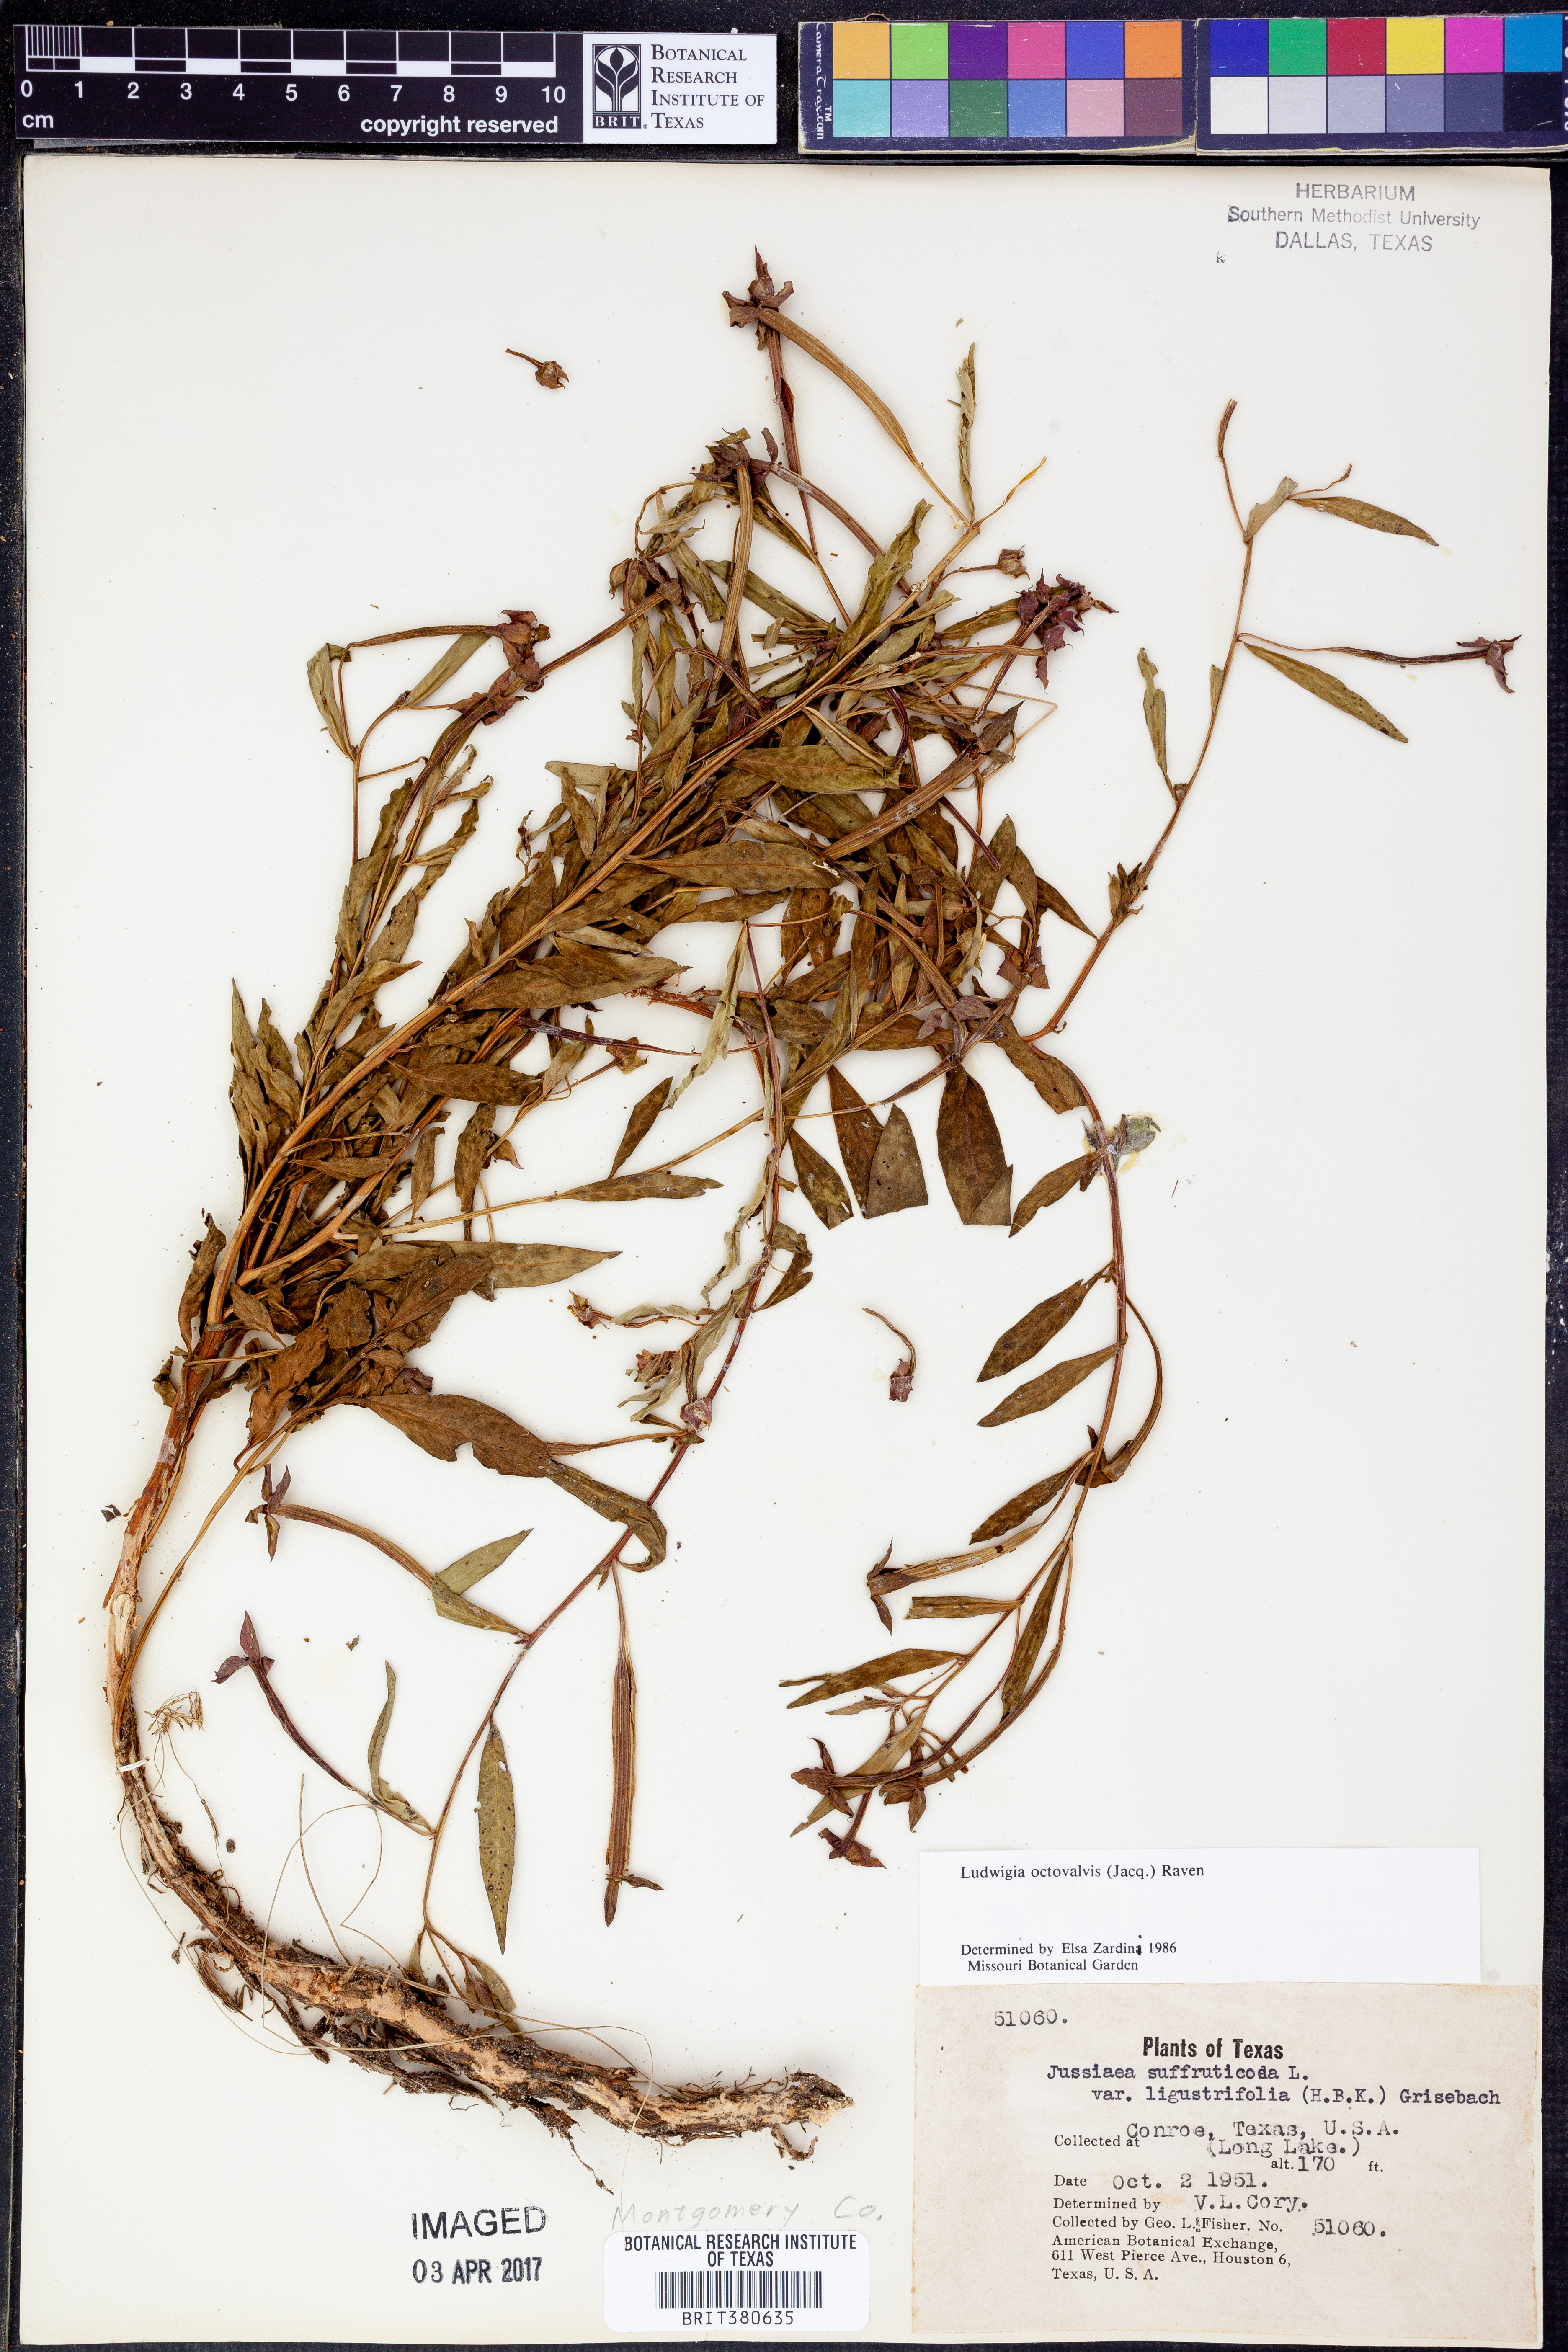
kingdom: Plantae
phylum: Tracheophyta
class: Magnoliopsida
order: Myrtales
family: Onagraceae
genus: Ludwigia
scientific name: Ludwigia octovalvis
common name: Water-primrose
